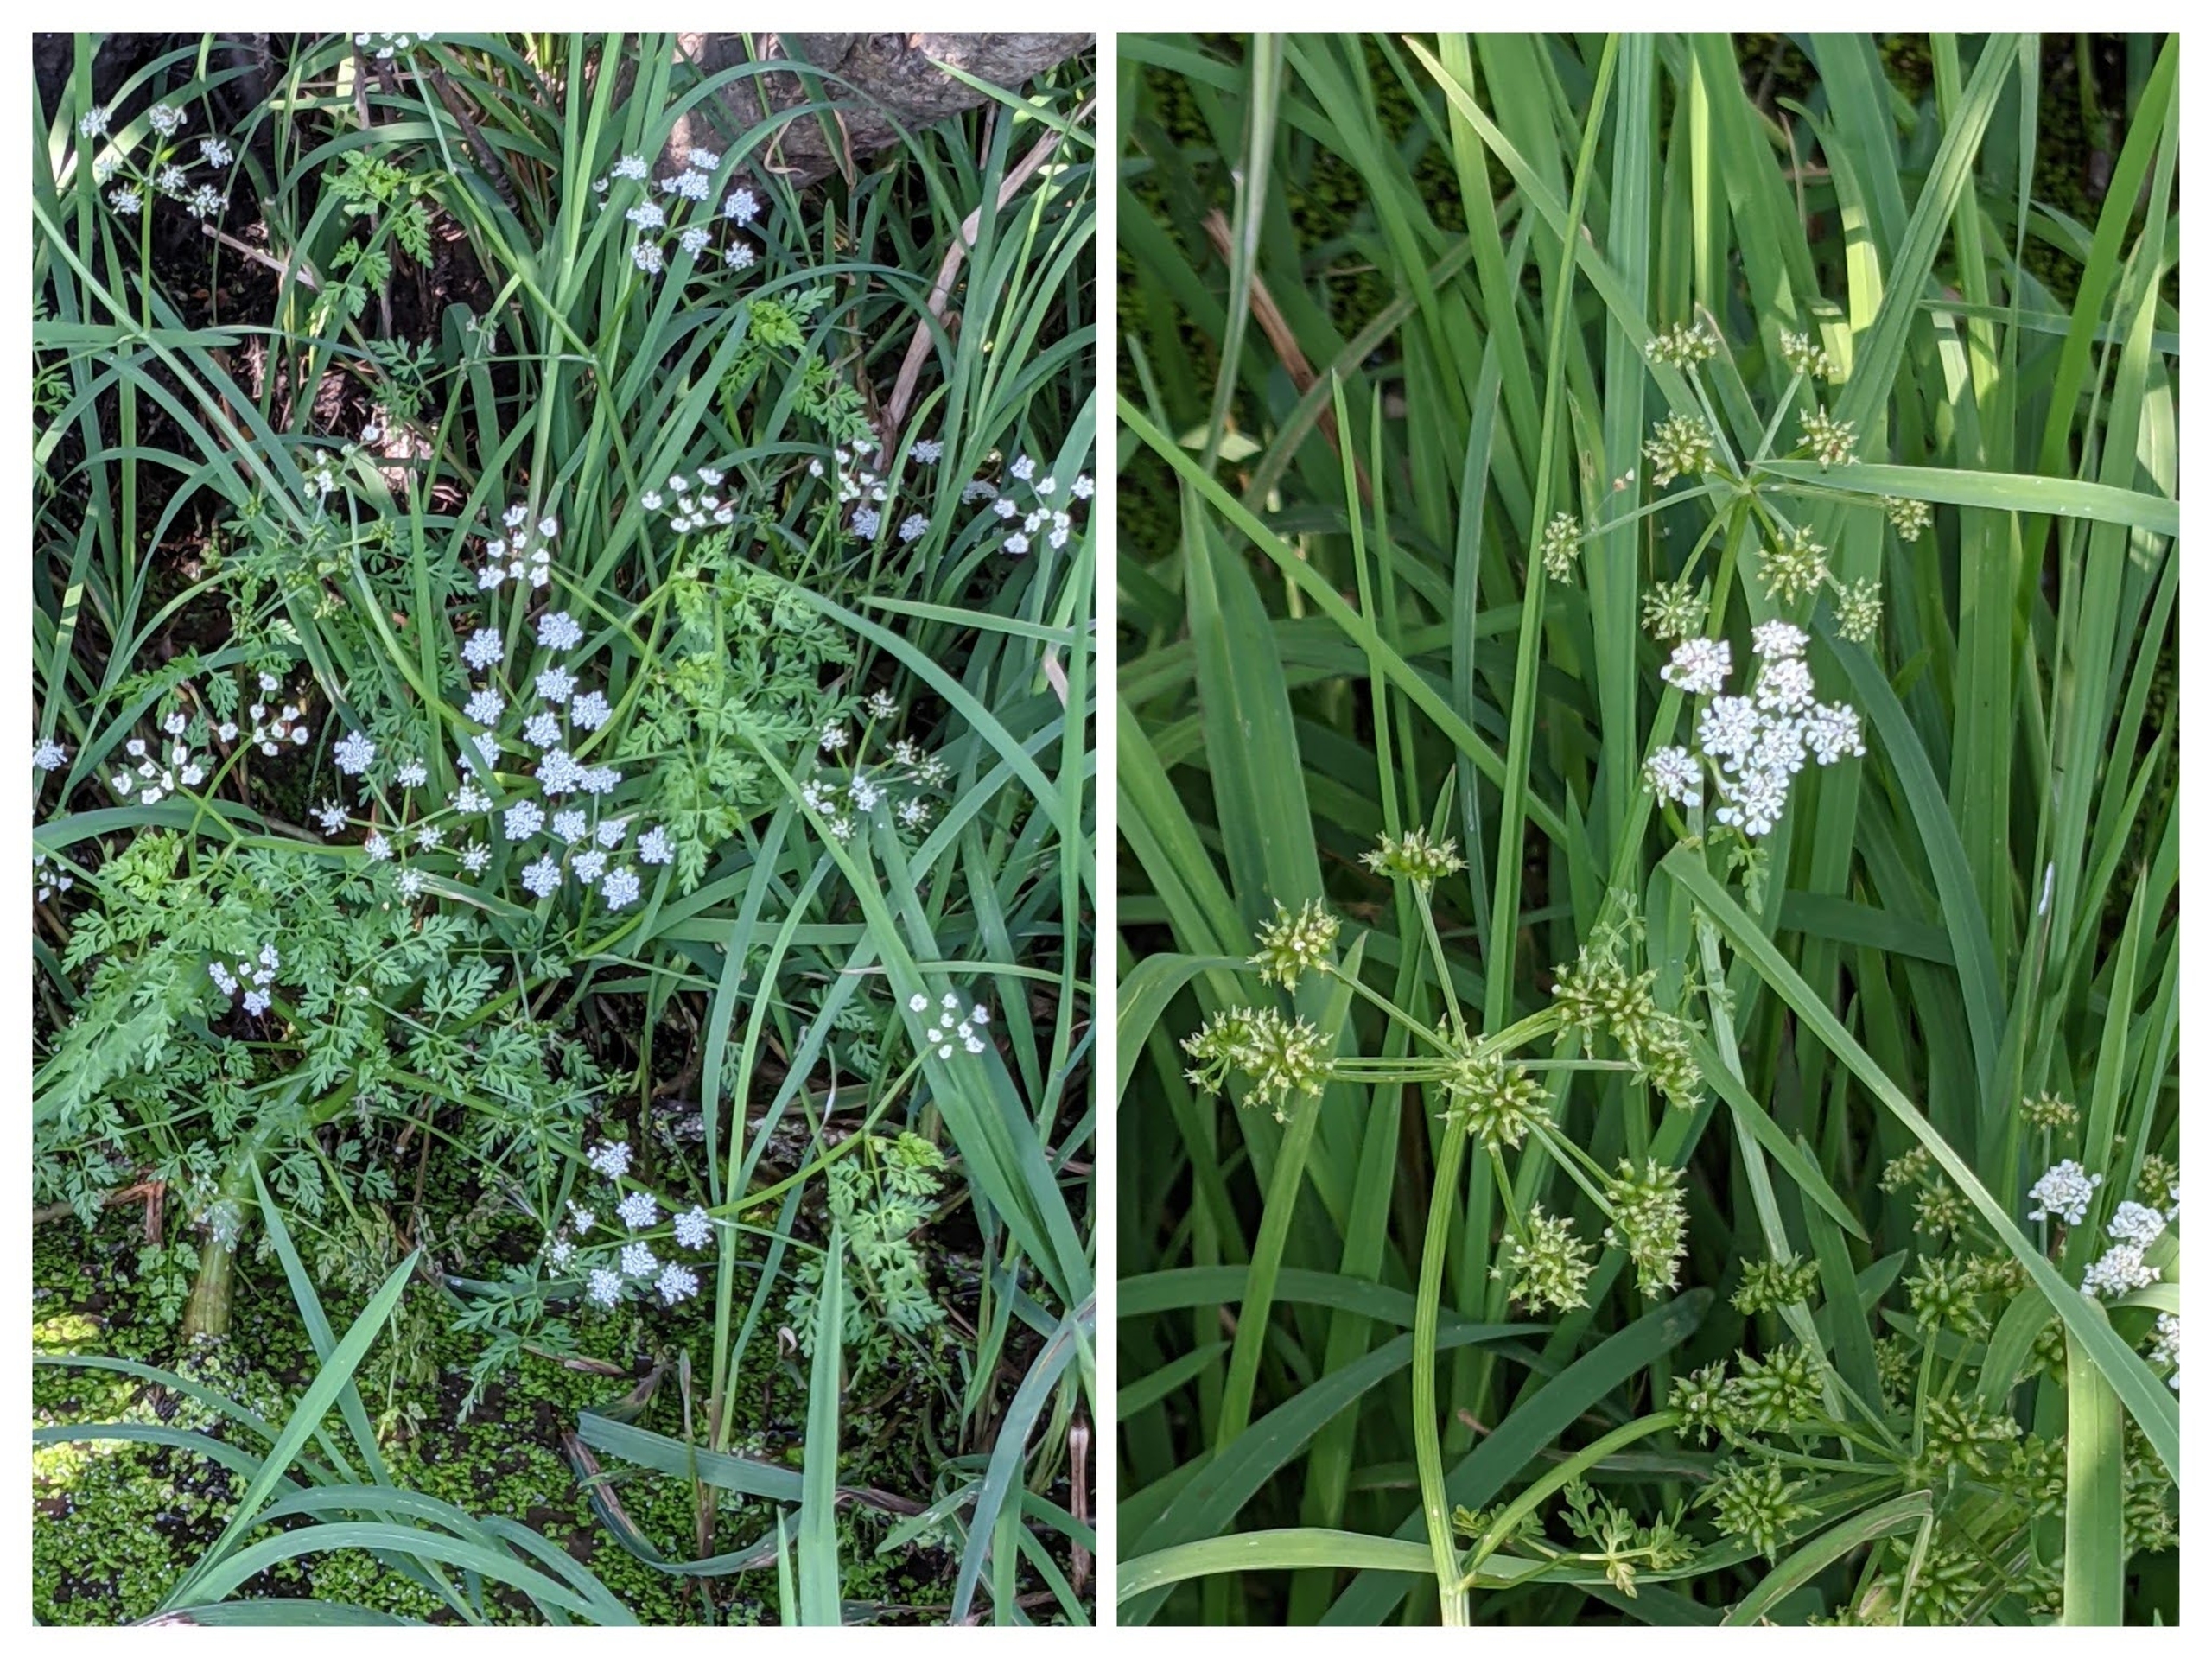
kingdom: Plantae
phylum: Tracheophyta
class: Magnoliopsida
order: Apiales
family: Apiaceae
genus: Oenanthe
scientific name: Oenanthe aquatica
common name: Billebo-klaseskærm
